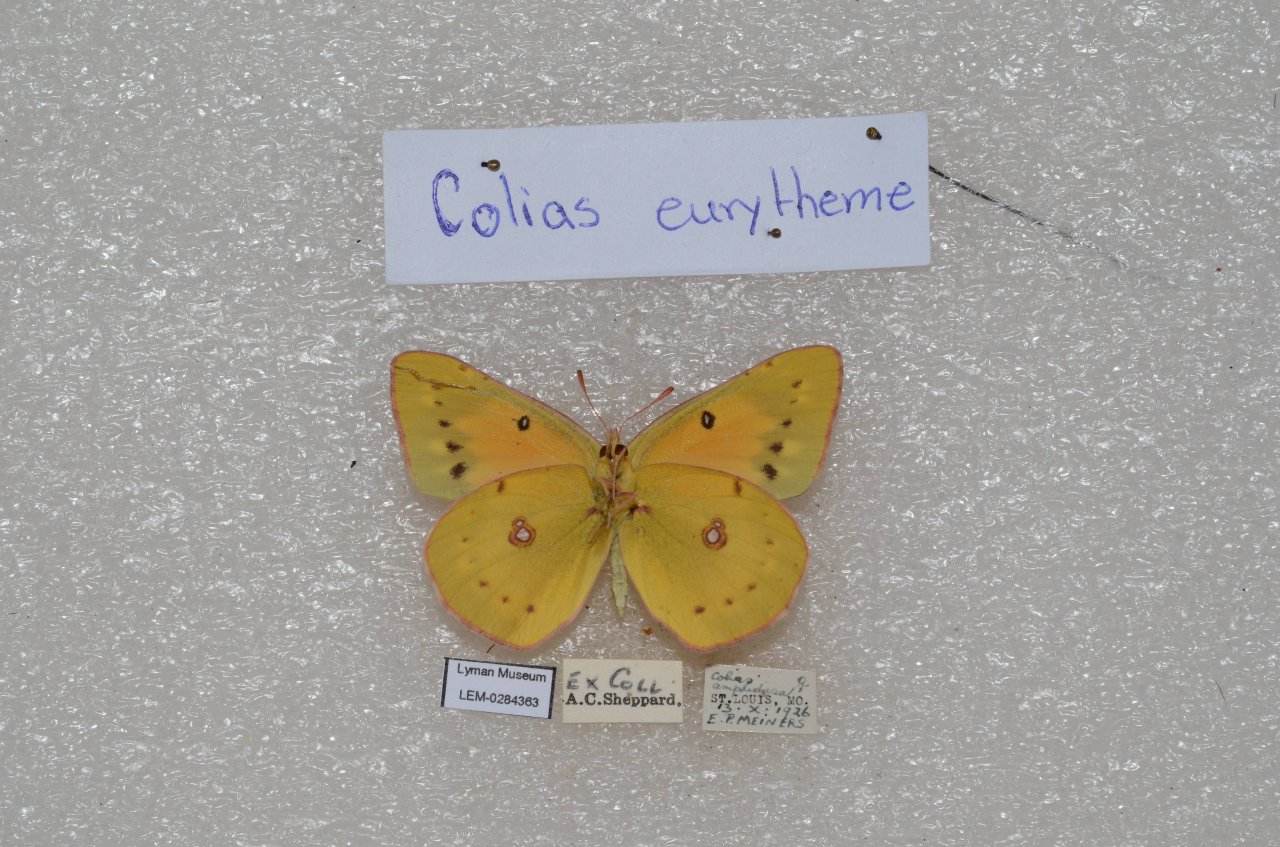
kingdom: Animalia
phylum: Arthropoda
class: Insecta
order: Lepidoptera
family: Pieridae
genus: Colias
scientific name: Colias eurytheme
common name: Orange Sulphur
